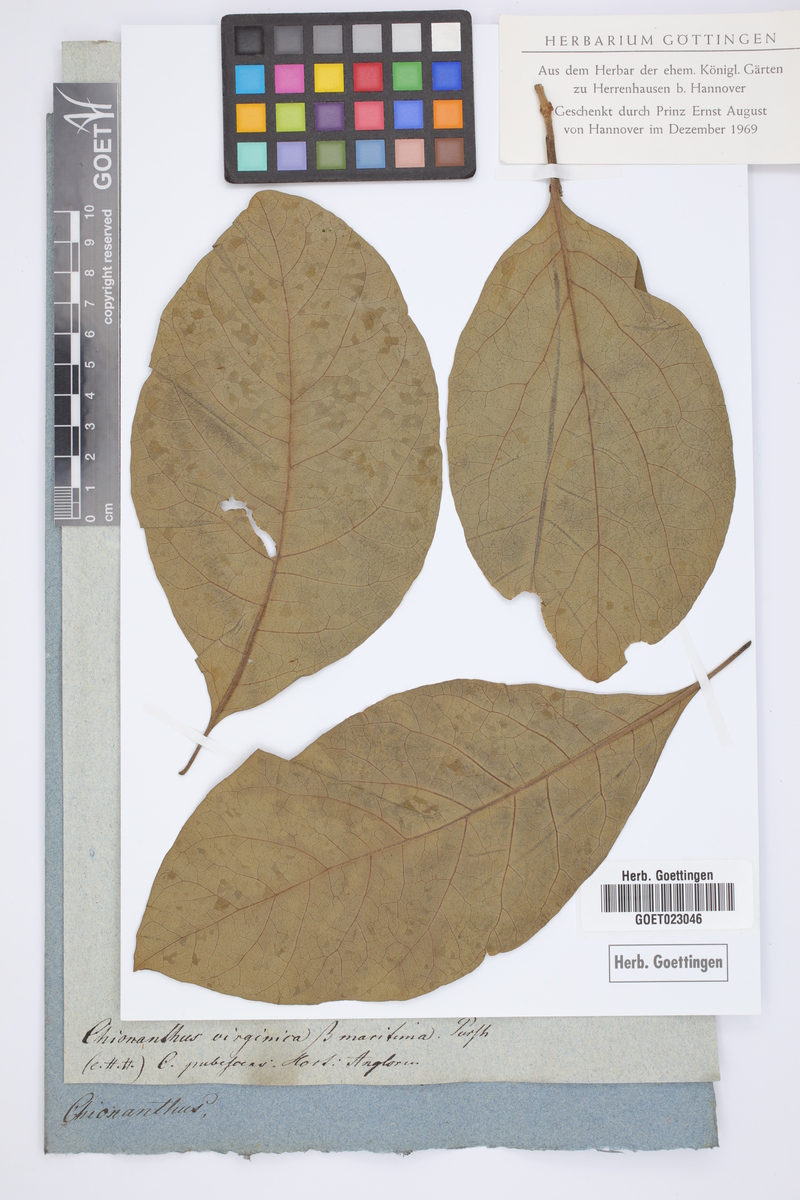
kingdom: Plantae
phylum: Tracheophyta
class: Magnoliopsida
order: Lamiales
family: Oleaceae
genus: Chionanthus
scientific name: Chionanthus virginicus
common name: American fringetree
